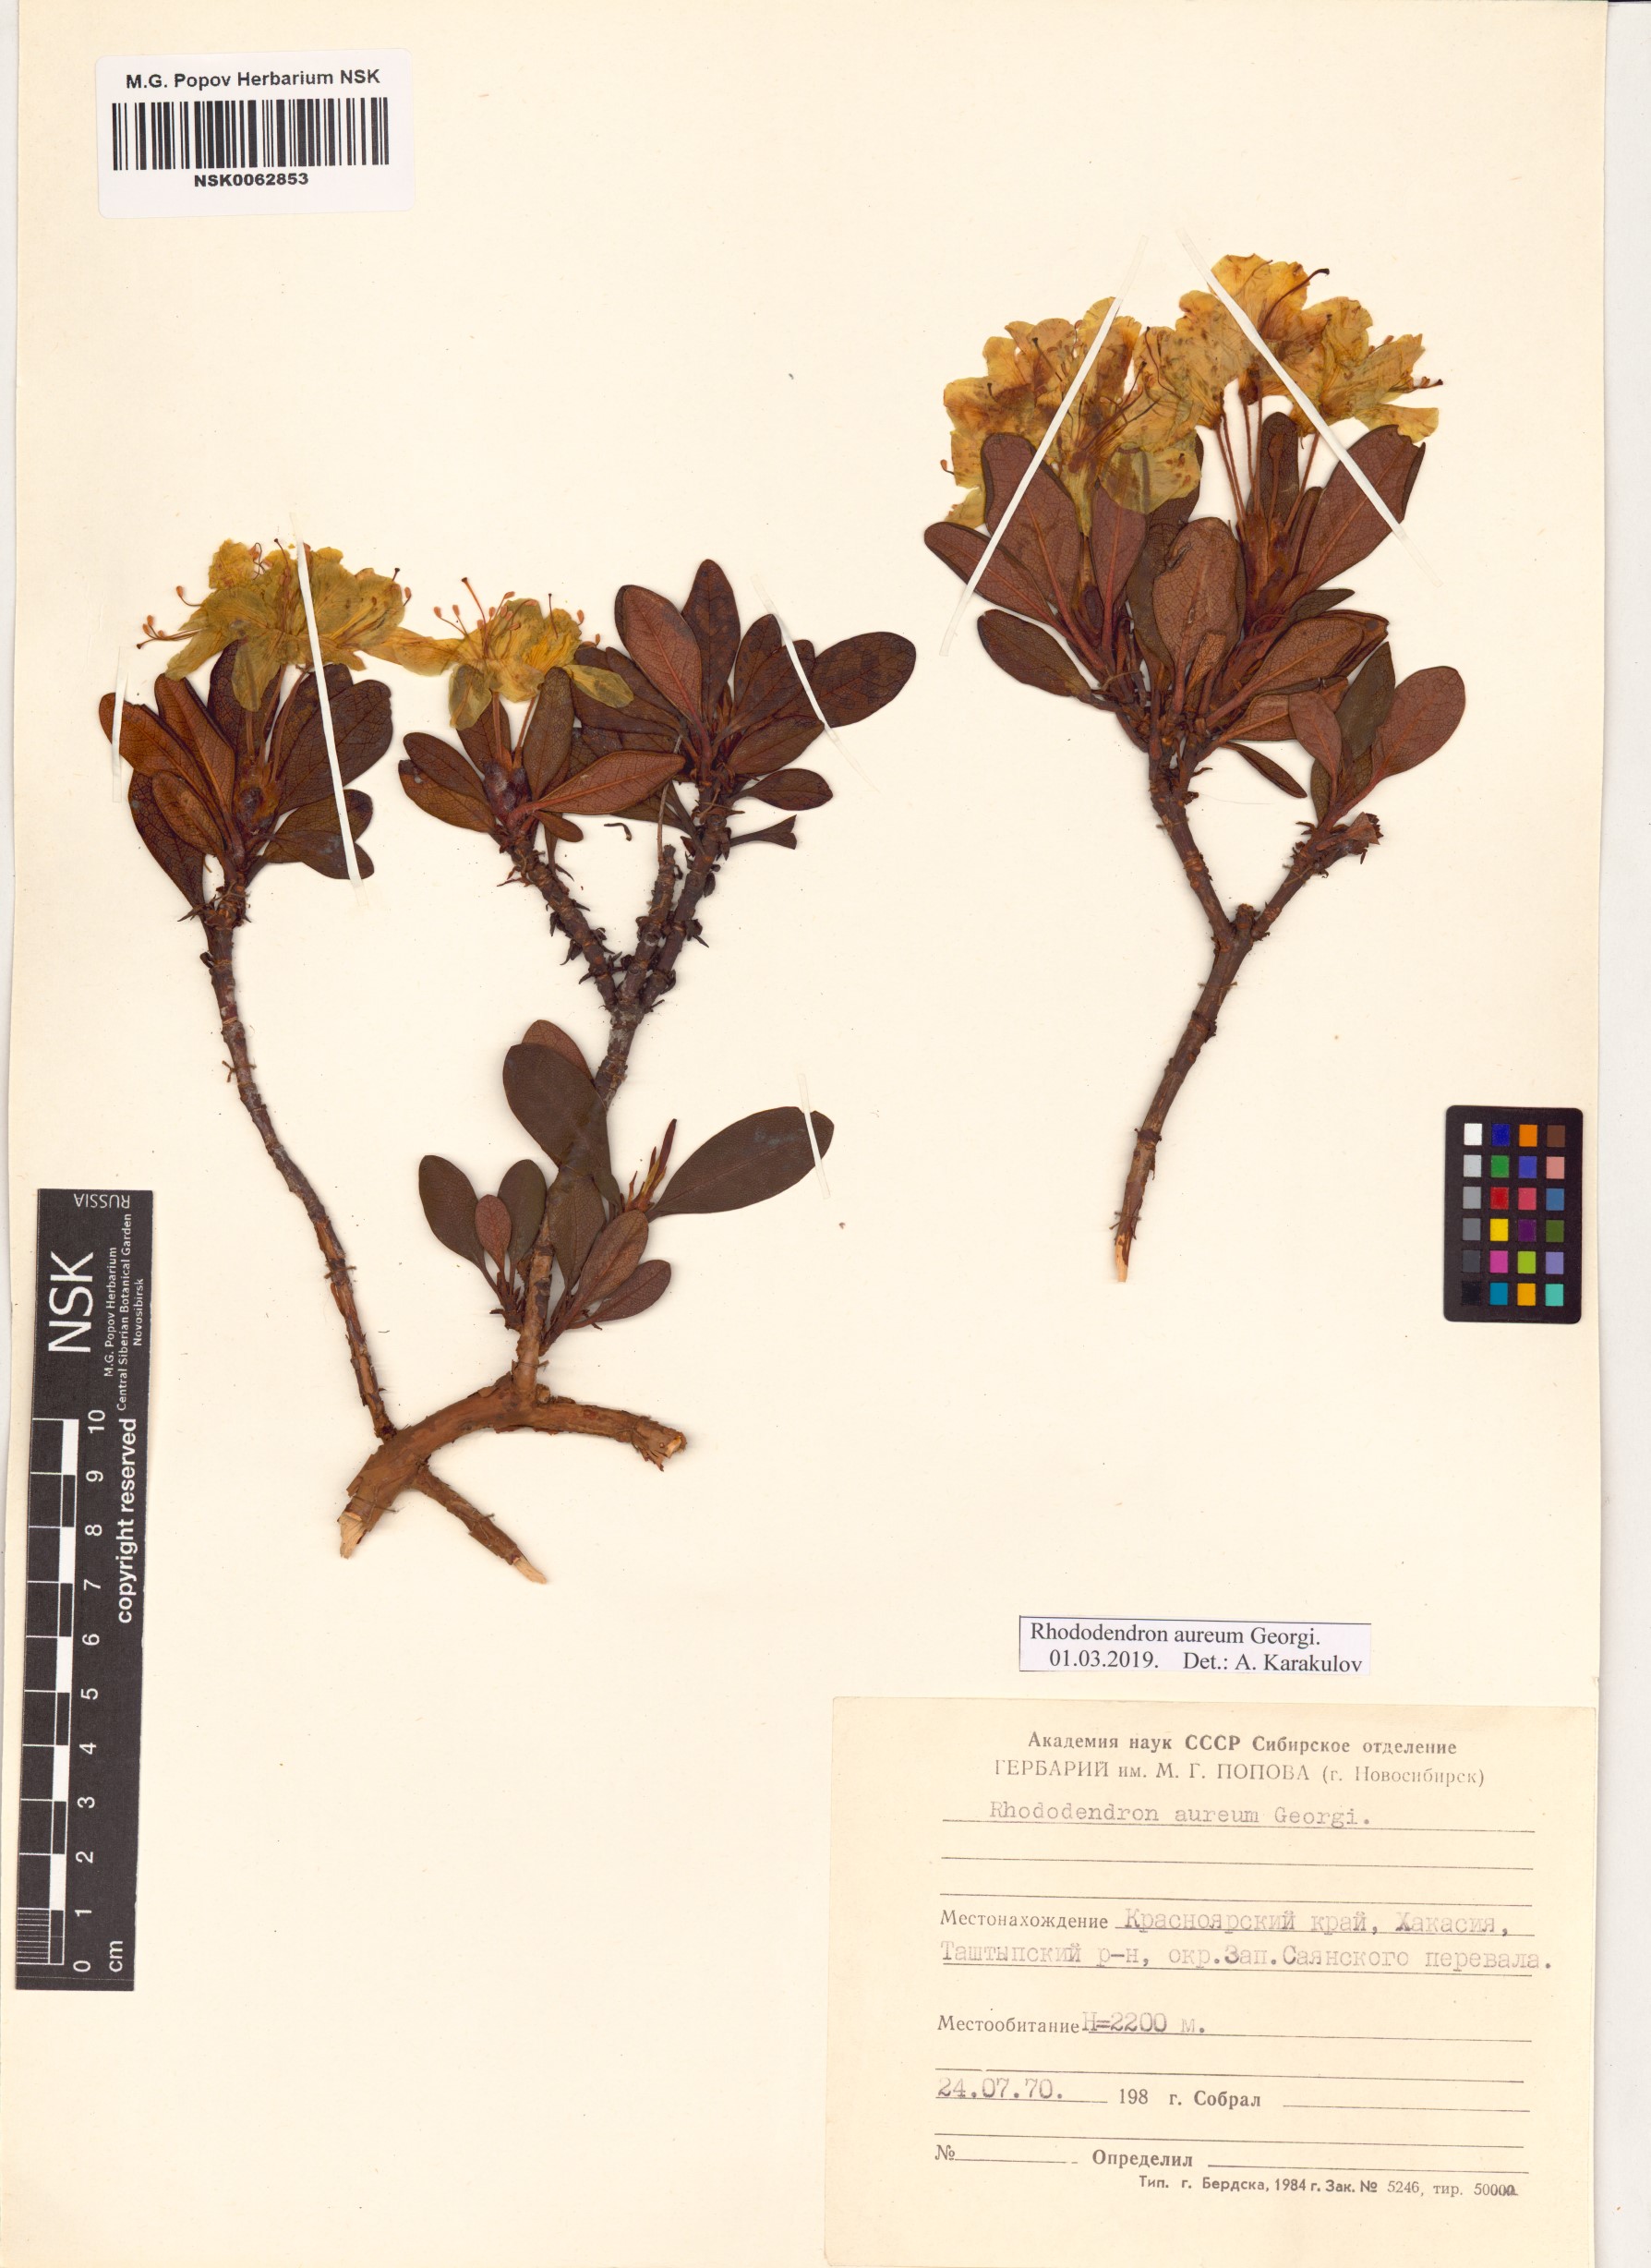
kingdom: Plantae
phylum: Tracheophyta
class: Magnoliopsida
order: Ericales
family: Ericaceae
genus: Rhododendron
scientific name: Rhododendron aureum
